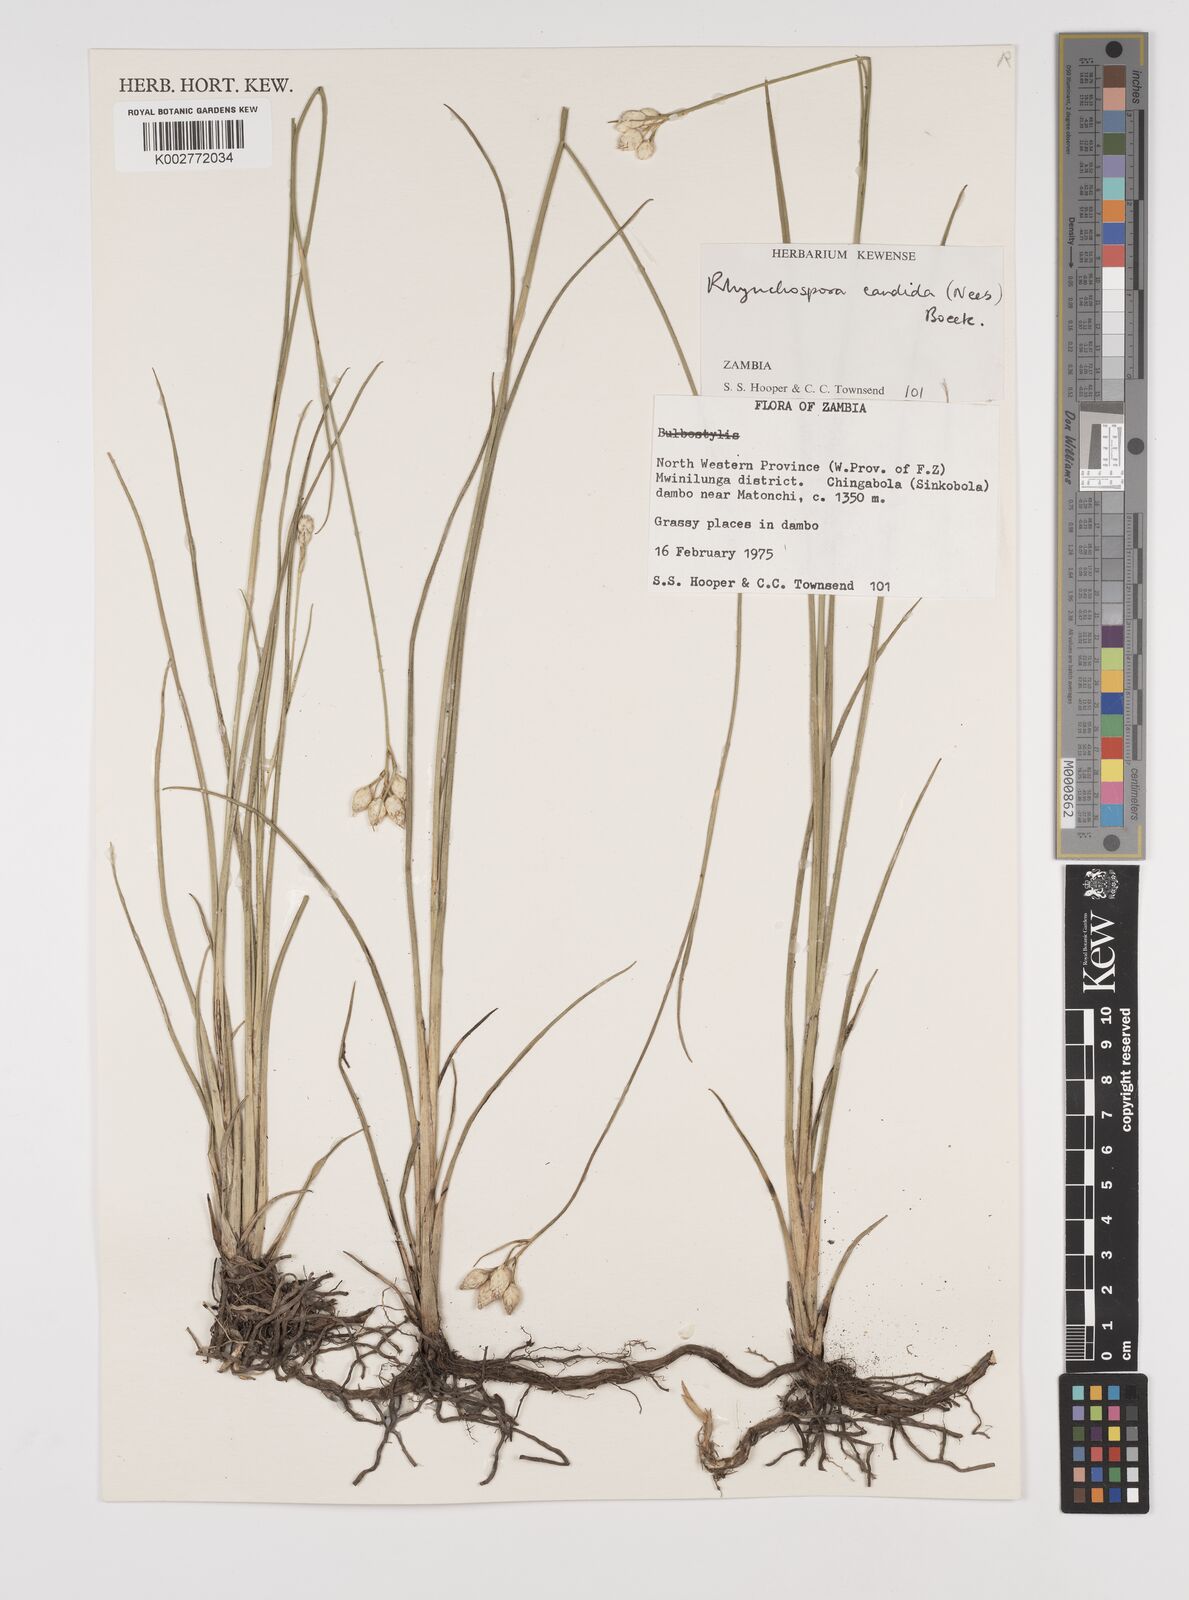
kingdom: Plantae
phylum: Tracheophyta
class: Liliopsida
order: Poales
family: Cyperaceae
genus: Rhynchospora
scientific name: Rhynchospora candida
